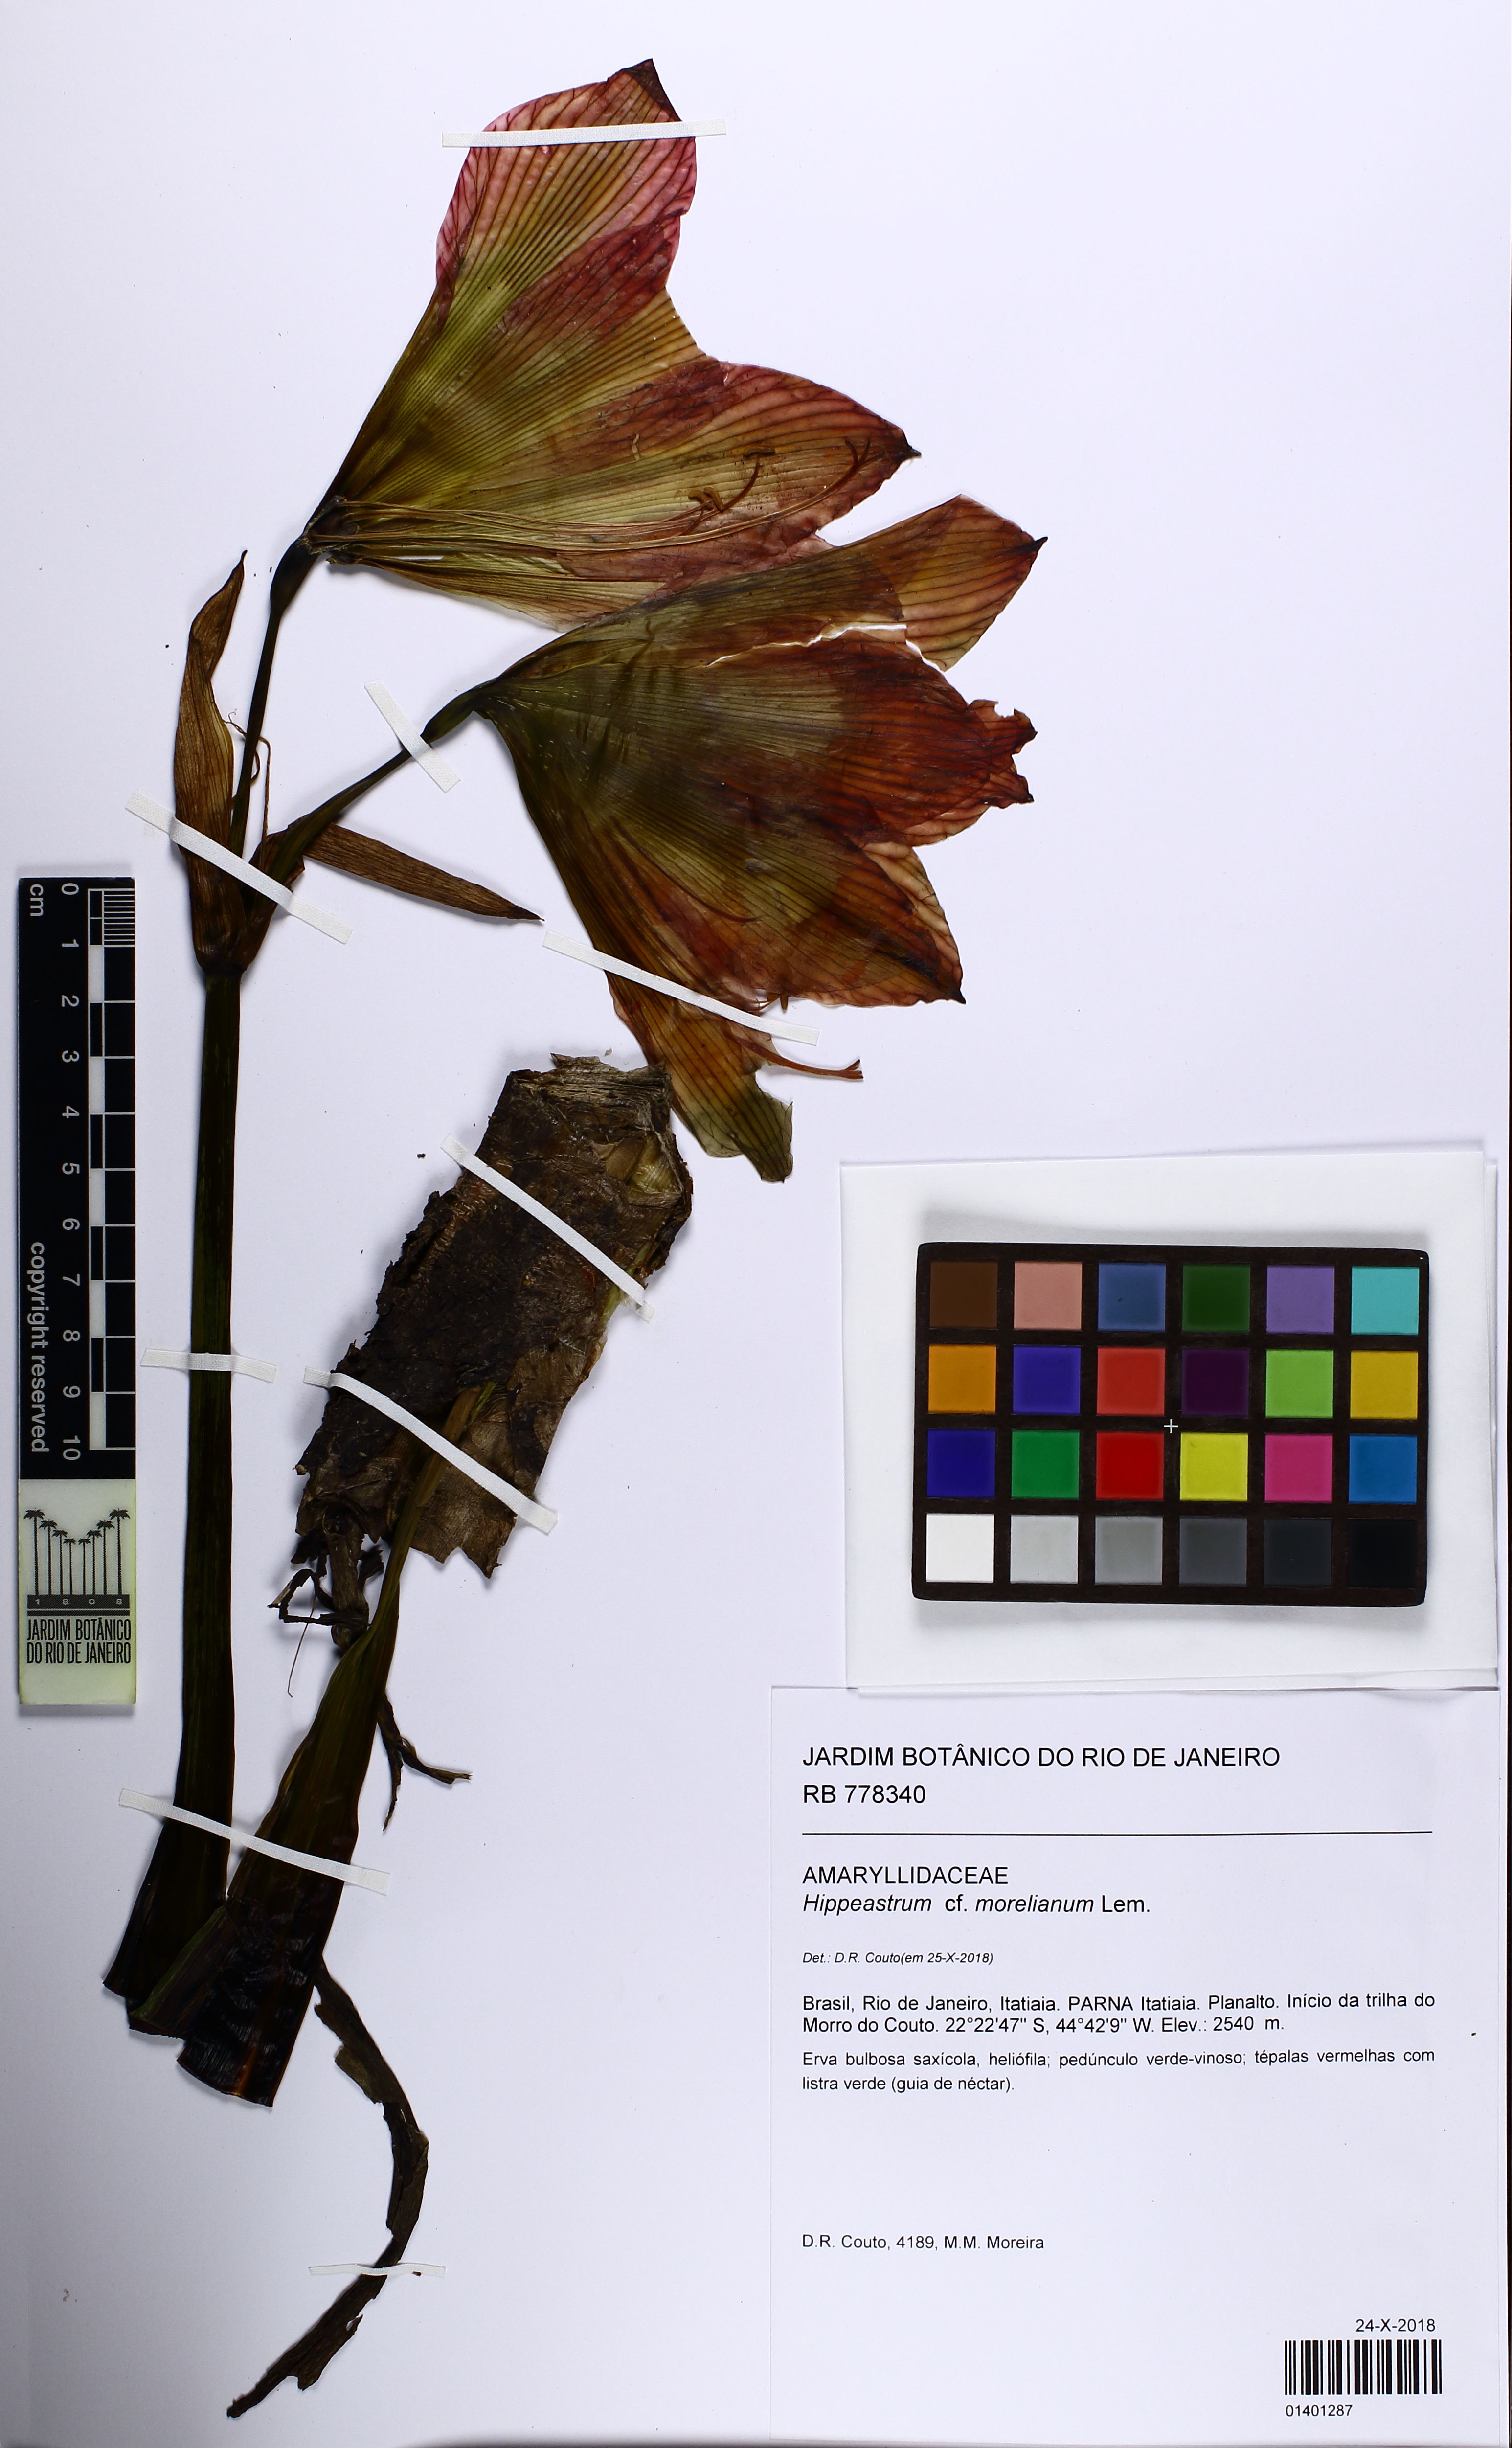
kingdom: Plantae
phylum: Tracheophyta
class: Liliopsida
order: Asparagales
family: Amaryllidaceae
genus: Hippeastrum
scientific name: Hippeastrum morelianum
